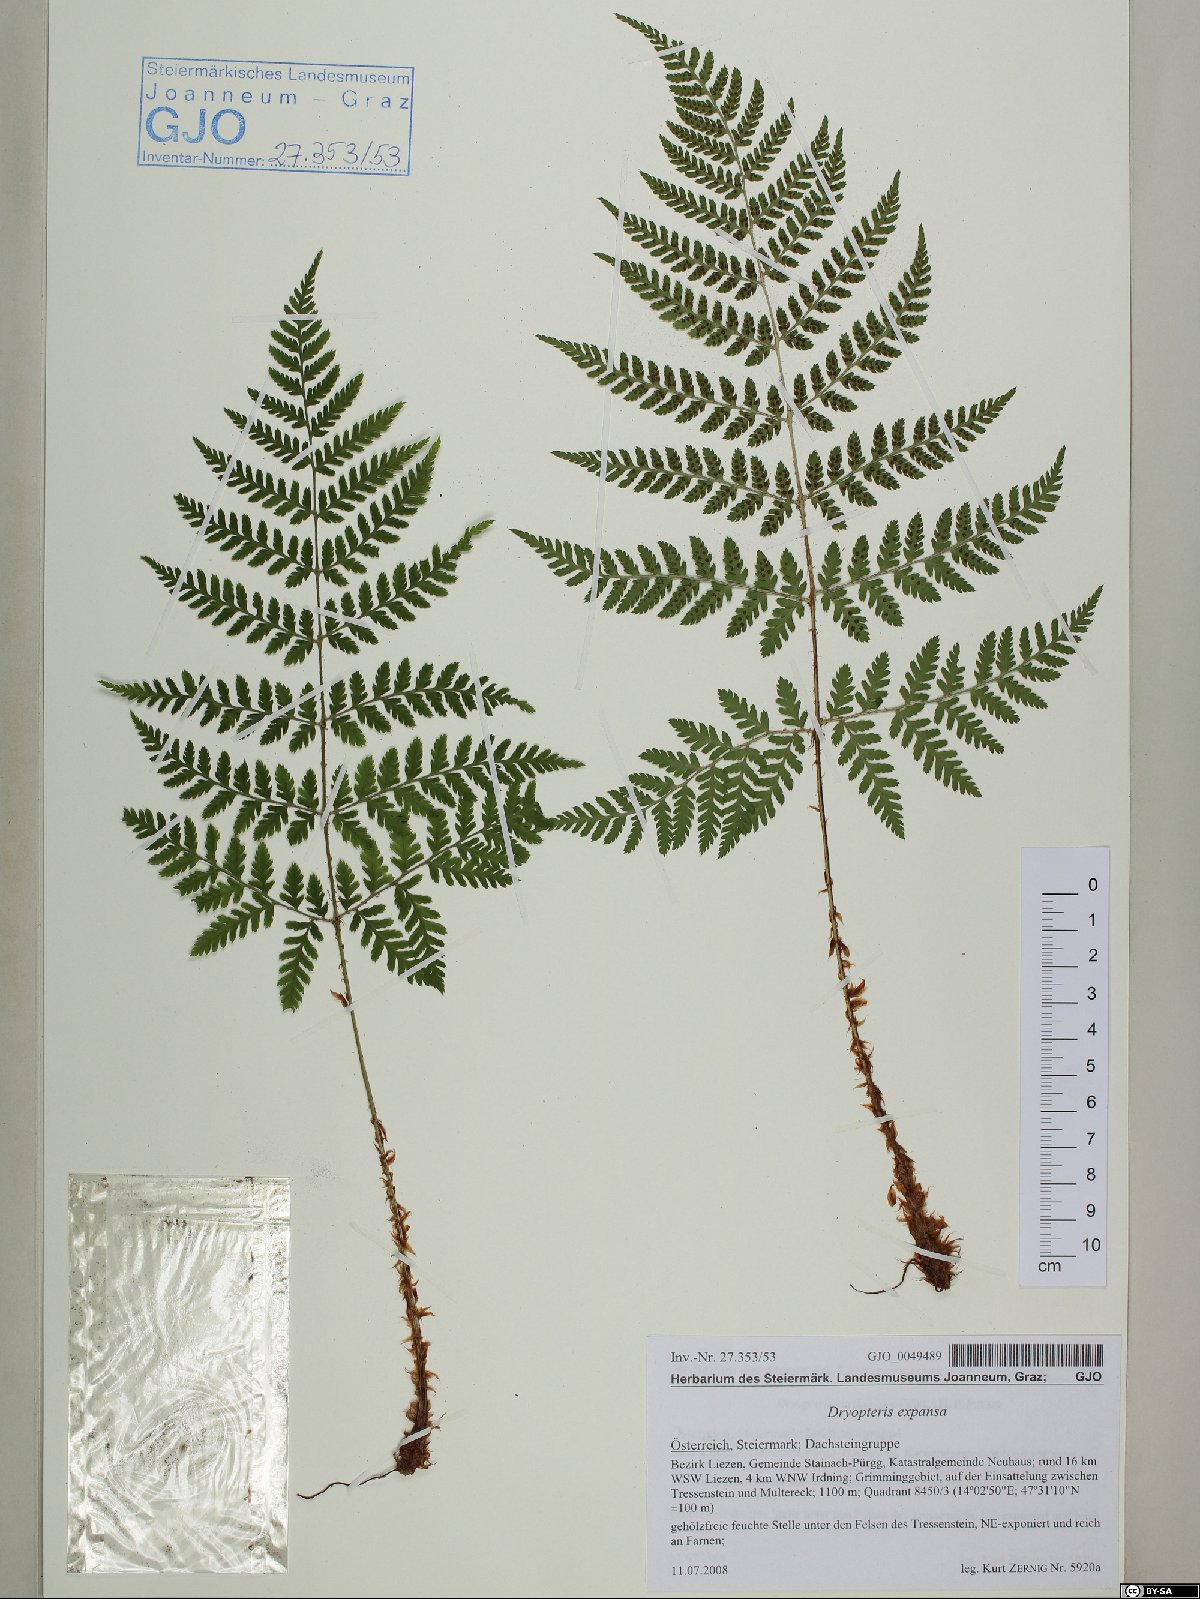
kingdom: Plantae
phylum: Tracheophyta
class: Polypodiopsida
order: Polypodiales
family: Dryopteridaceae
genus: Dryopteris
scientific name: Dryopteris expansa
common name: Northern buckler fern
